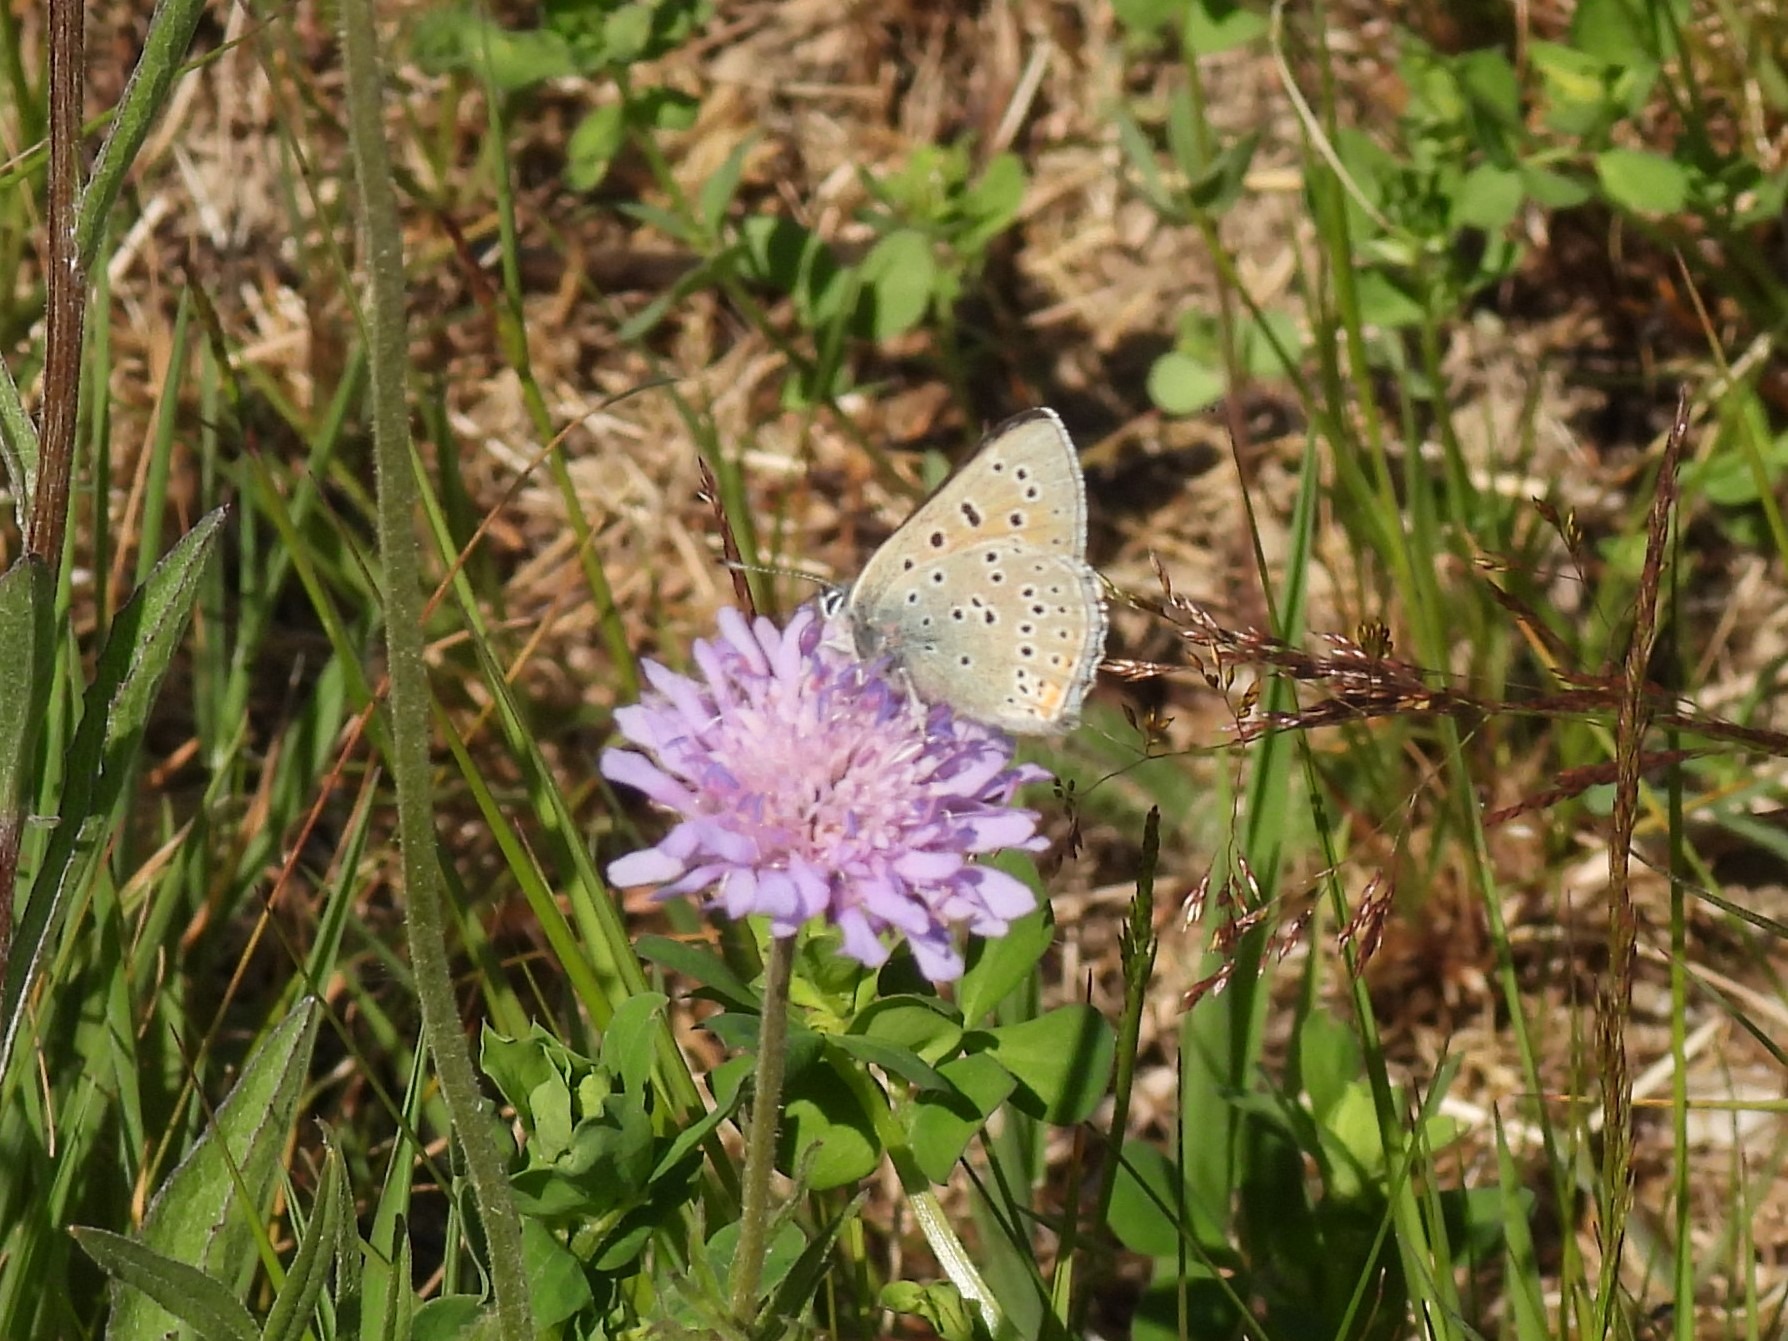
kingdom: Animalia
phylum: Arthropoda
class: Insecta
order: Lepidoptera
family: Lycaenidae
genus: Palaeochrysophanus
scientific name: Palaeochrysophanus hippothoe
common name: Violetrandet ildfugl
